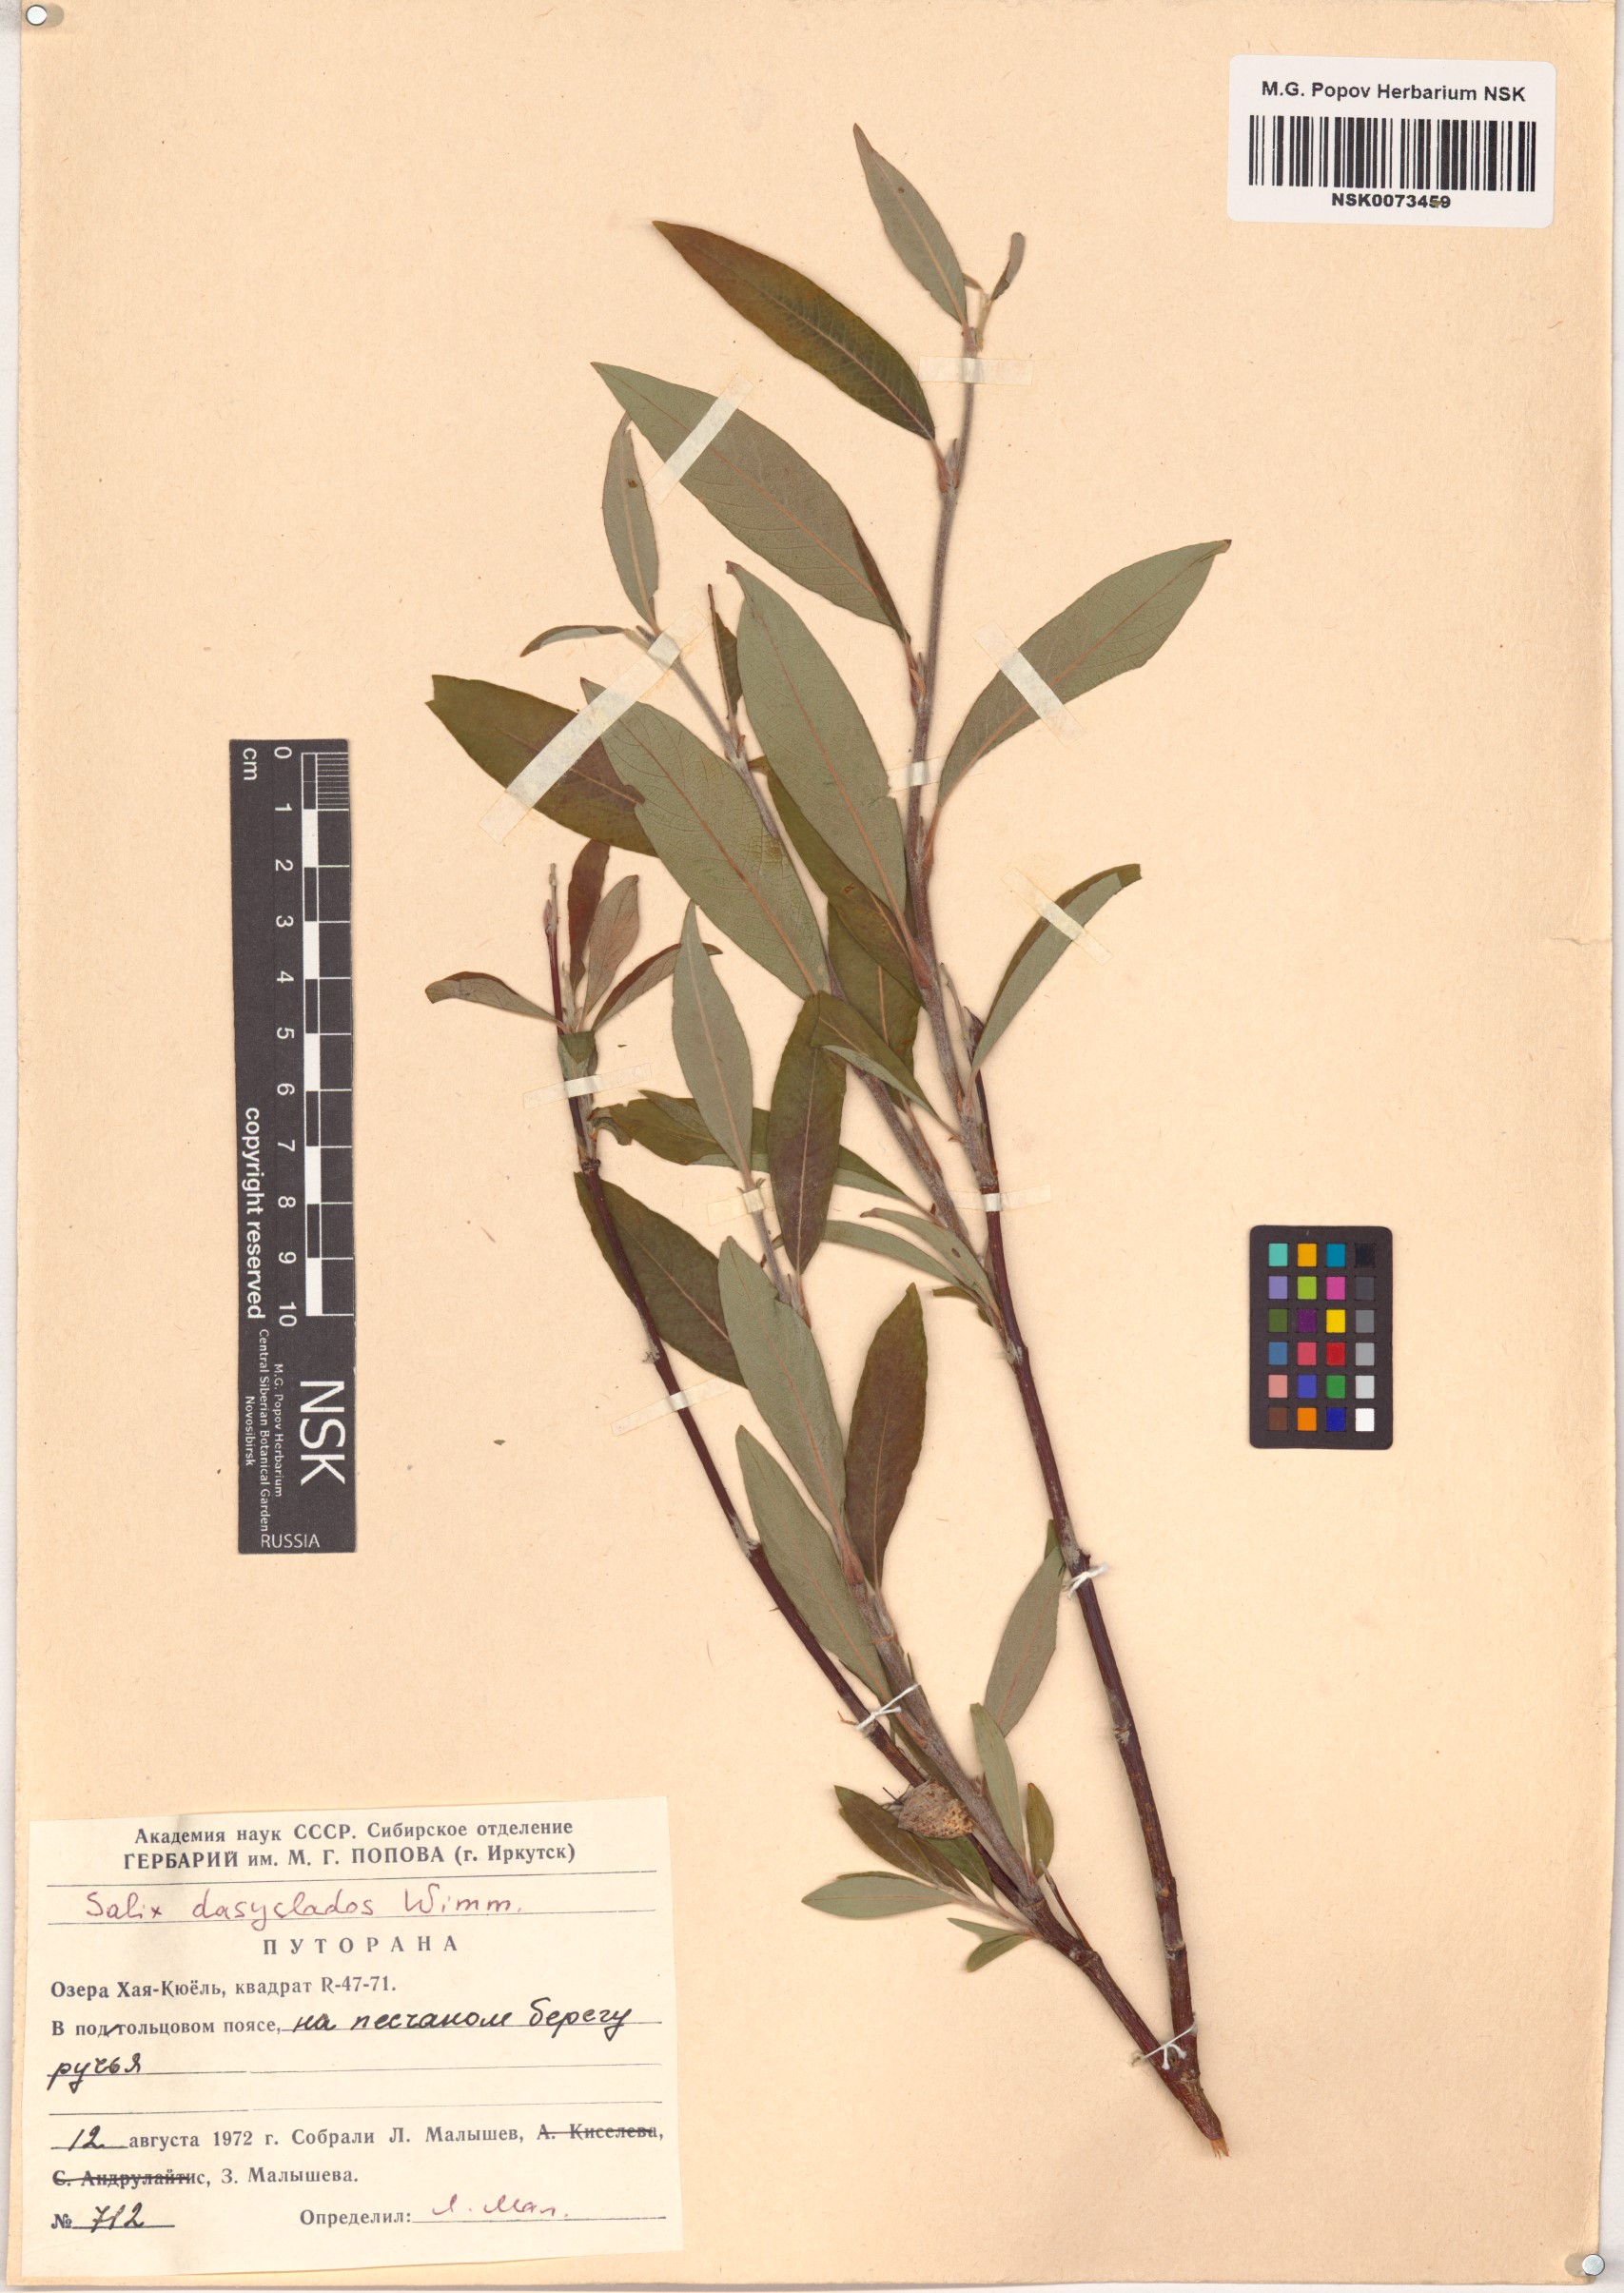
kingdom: Plantae
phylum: Tracheophyta
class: Magnoliopsida
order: Malpighiales
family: Salicaceae
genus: Salix
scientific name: Salix gmelinii
